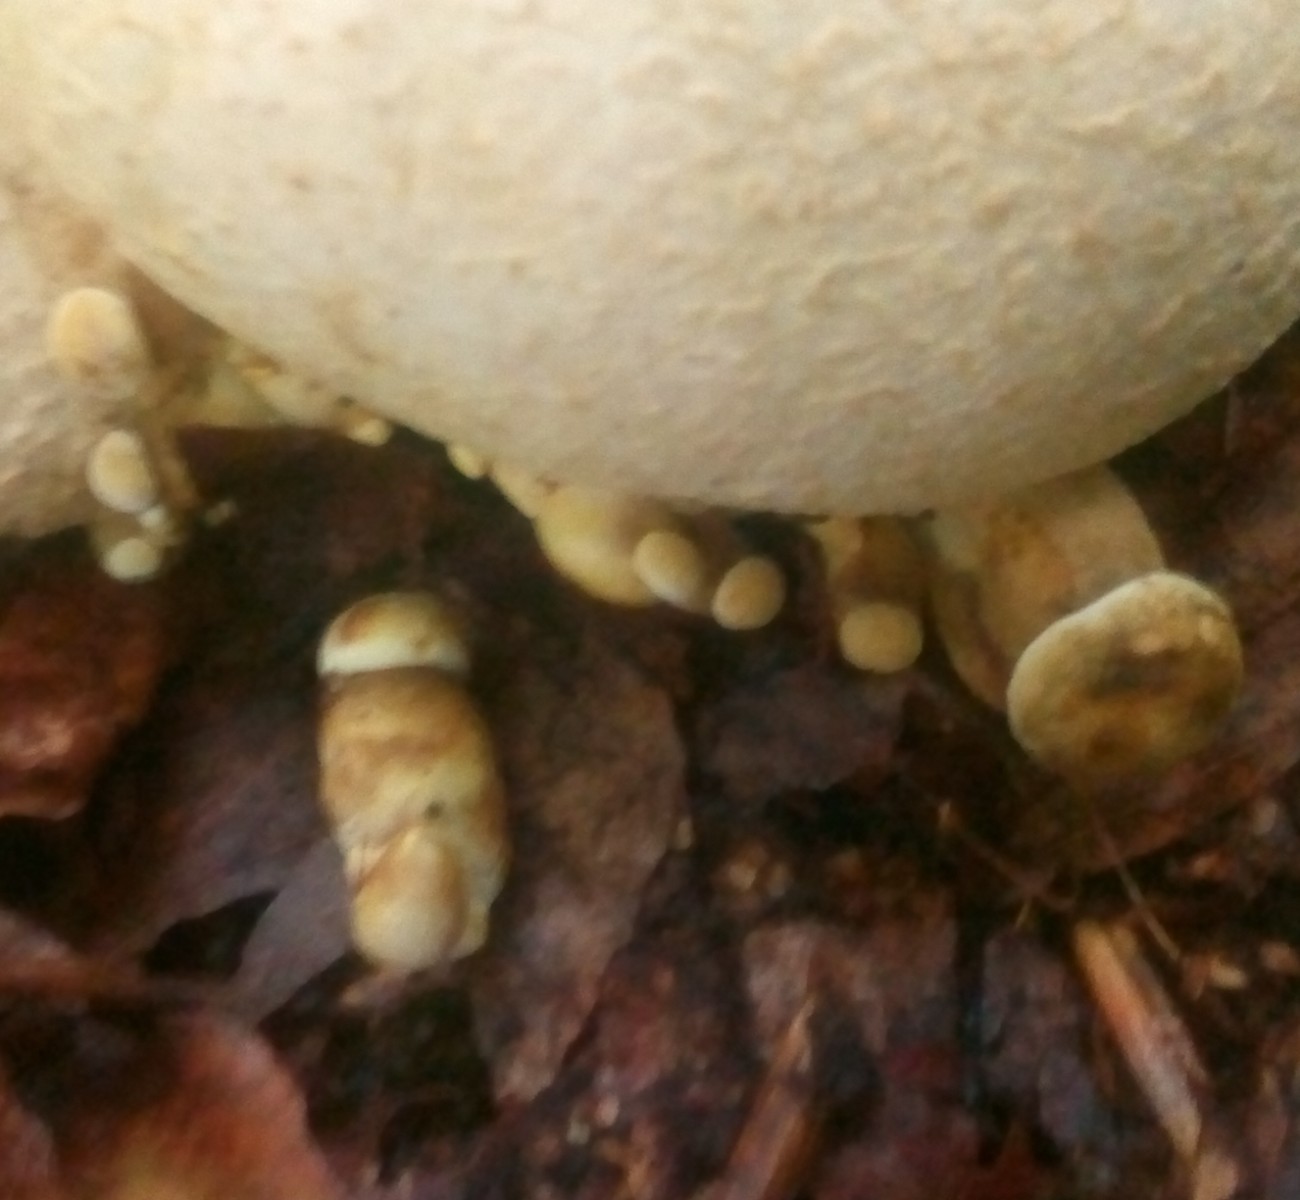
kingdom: Fungi
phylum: Basidiomycota
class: Agaricomycetes
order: Boletales
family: Boletaceae
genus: Pseudoboletus
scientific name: Pseudoboletus parasiticus
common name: snyltende rørhat
